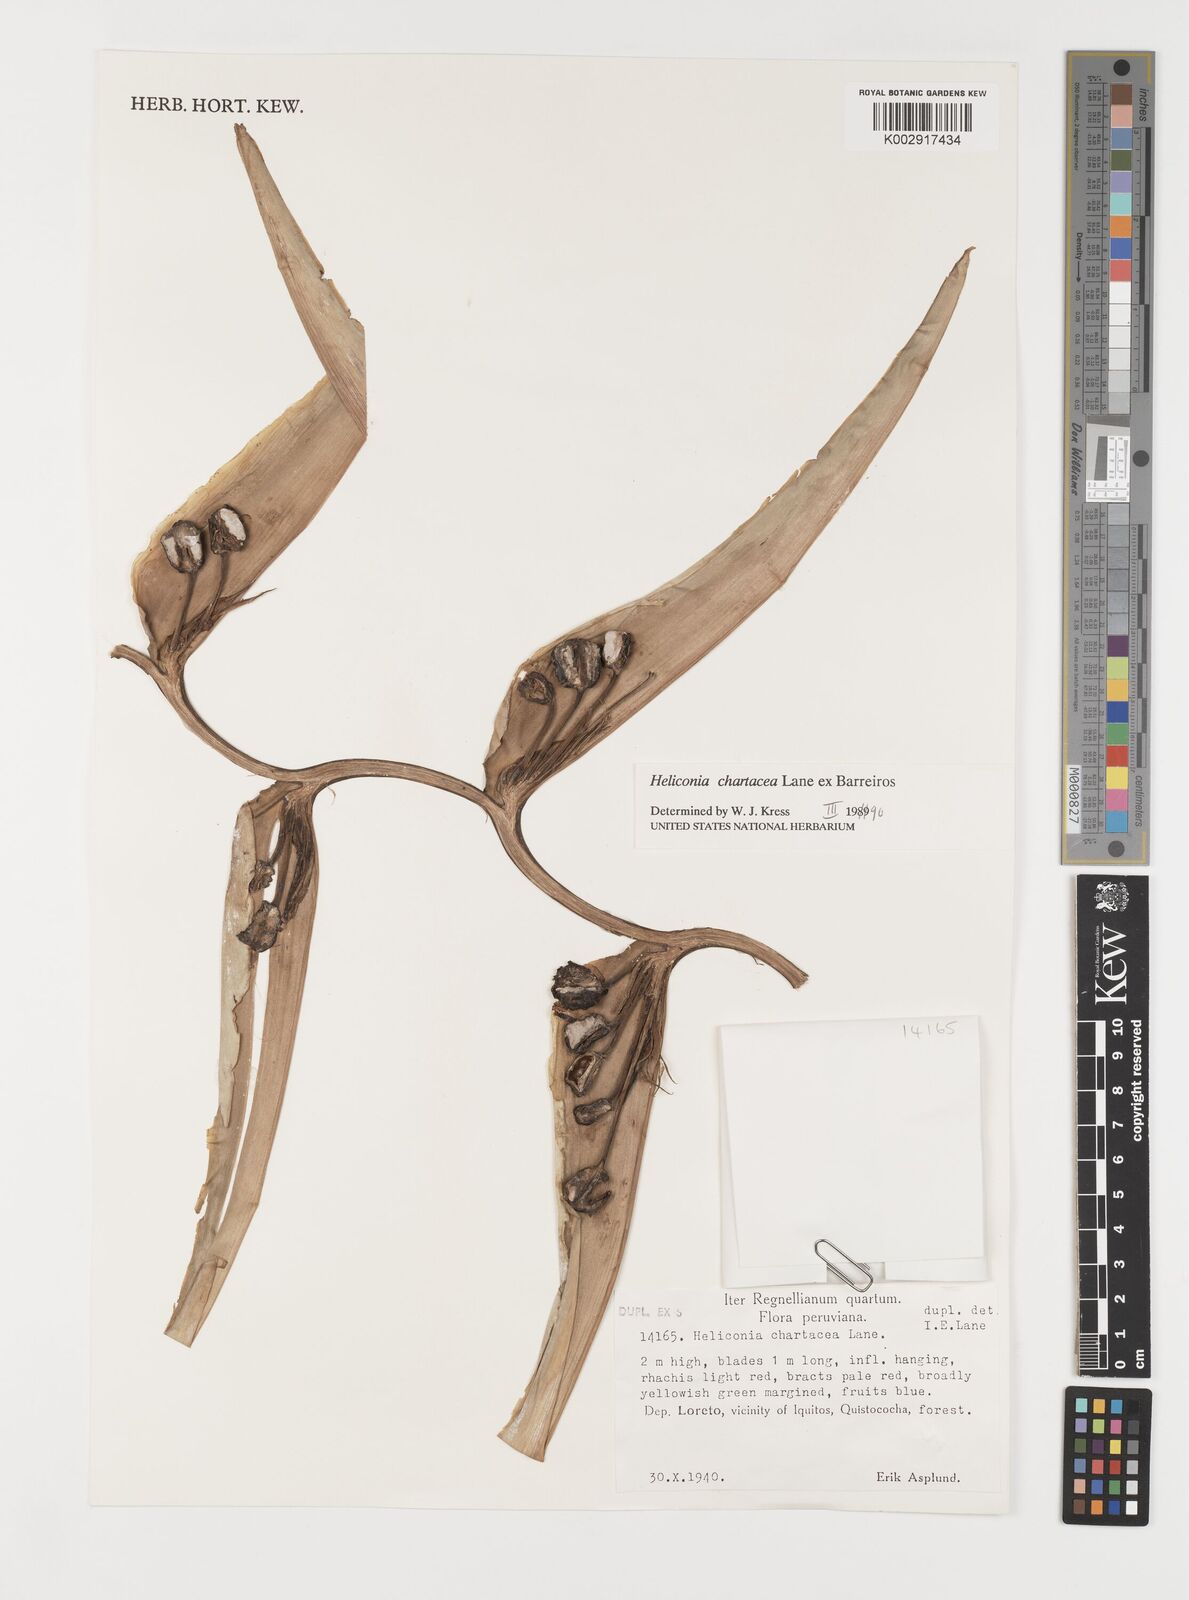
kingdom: Plantae
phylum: Tracheophyta
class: Liliopsida
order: Zingiberales
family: Heliconiaceae
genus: Heliconia
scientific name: Heliconia bourgaeana
